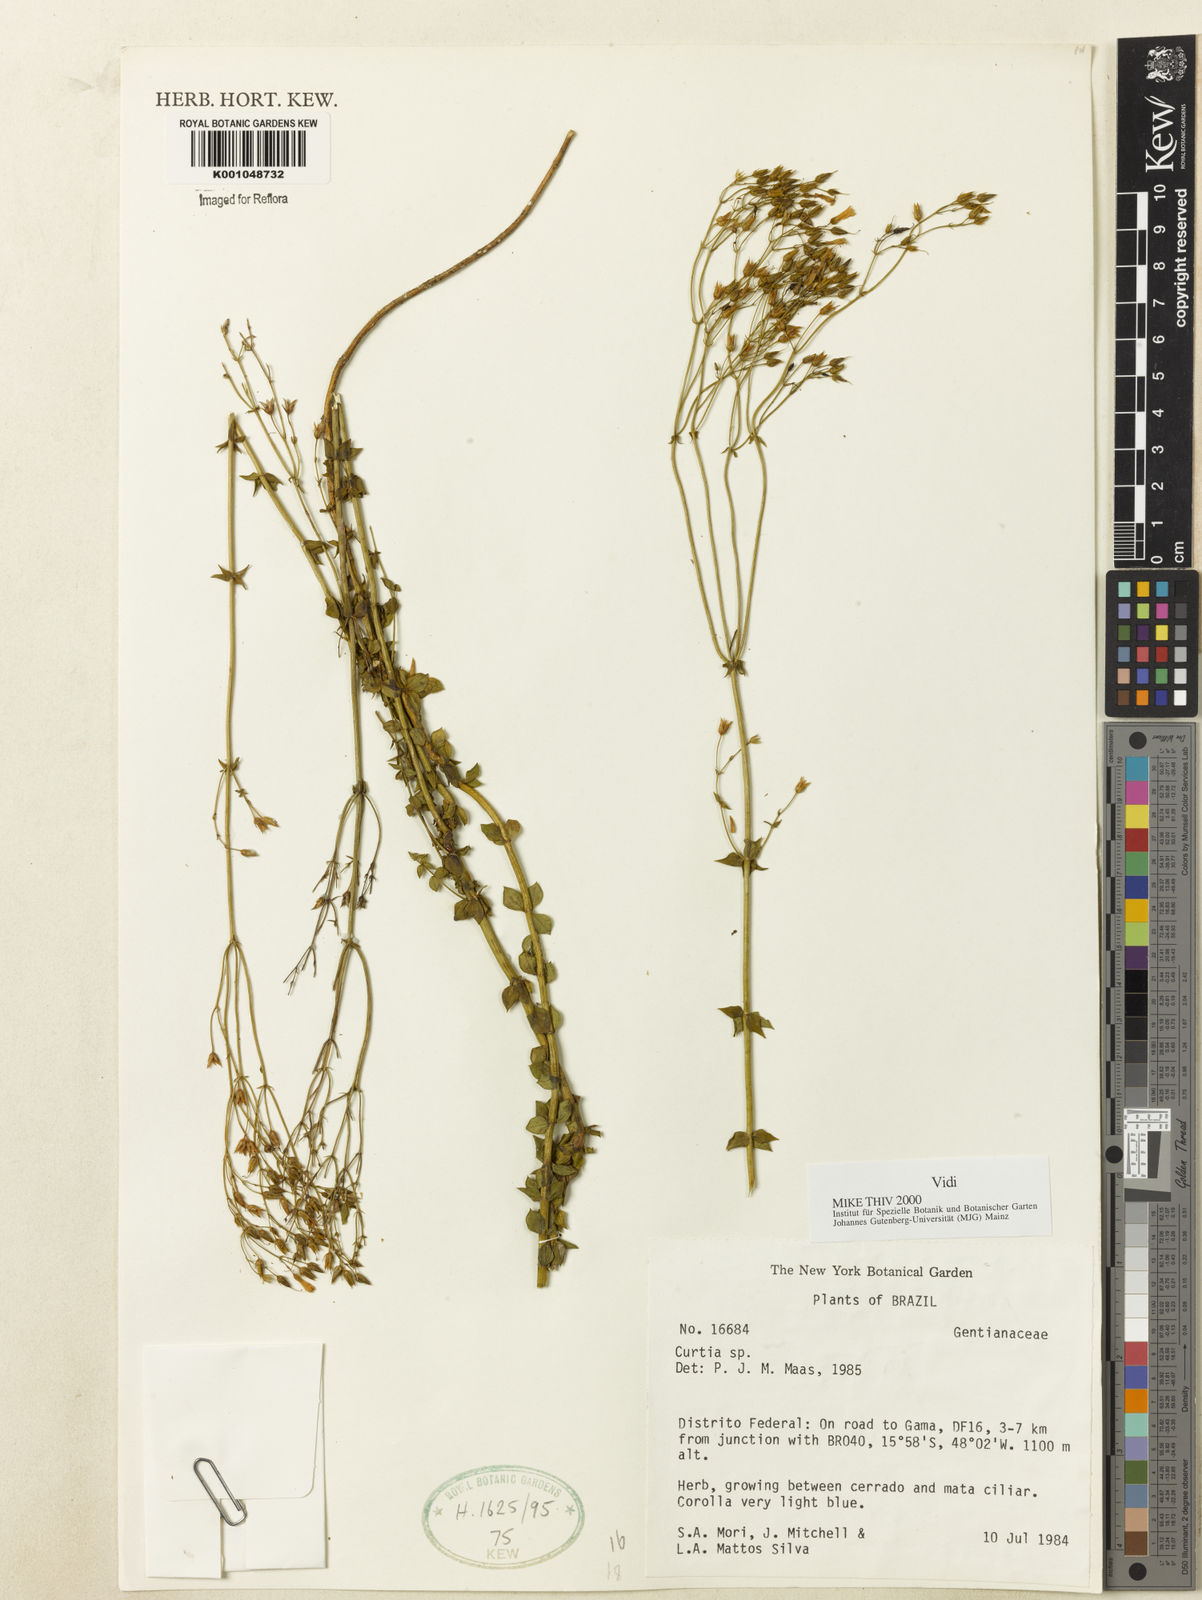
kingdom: Plantae
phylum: Tracheophyta
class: Magnoliopsida
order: Gentianales
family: Gentianaceae
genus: Curtia
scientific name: Curtia
